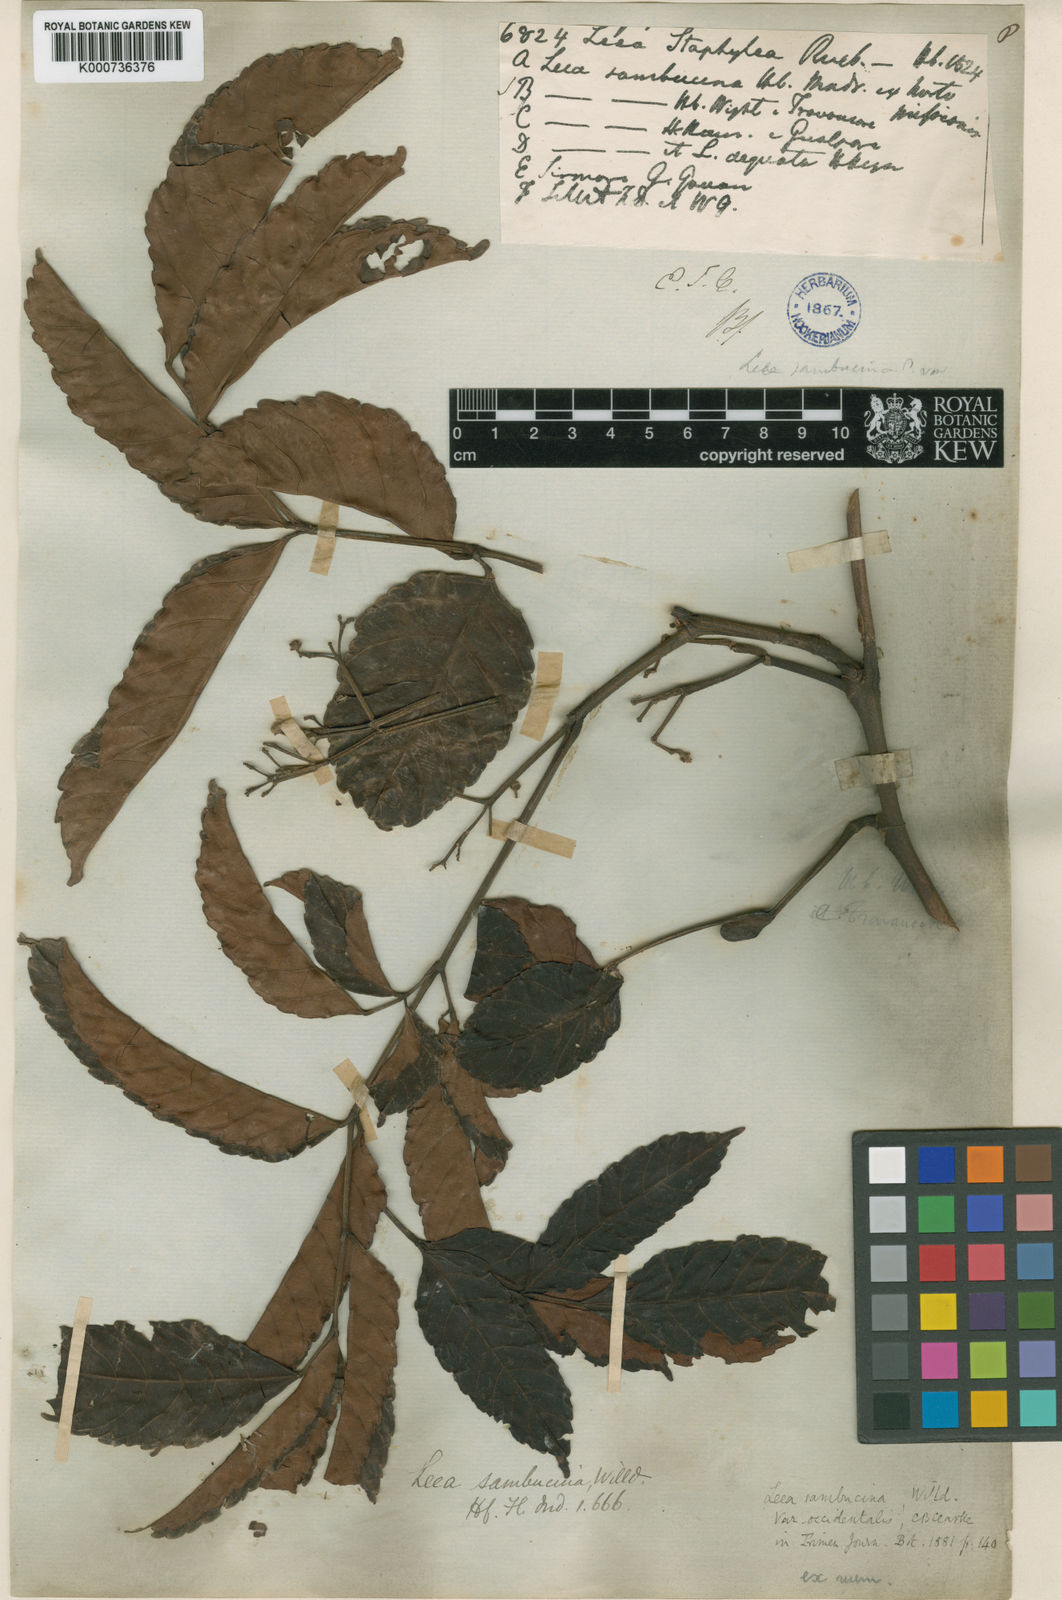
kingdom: Plantae
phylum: Tracheophyta
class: Magnoliopsida
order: Vitales
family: Vitaceae
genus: Leea
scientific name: Leea indica
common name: Bandicoot-berry
